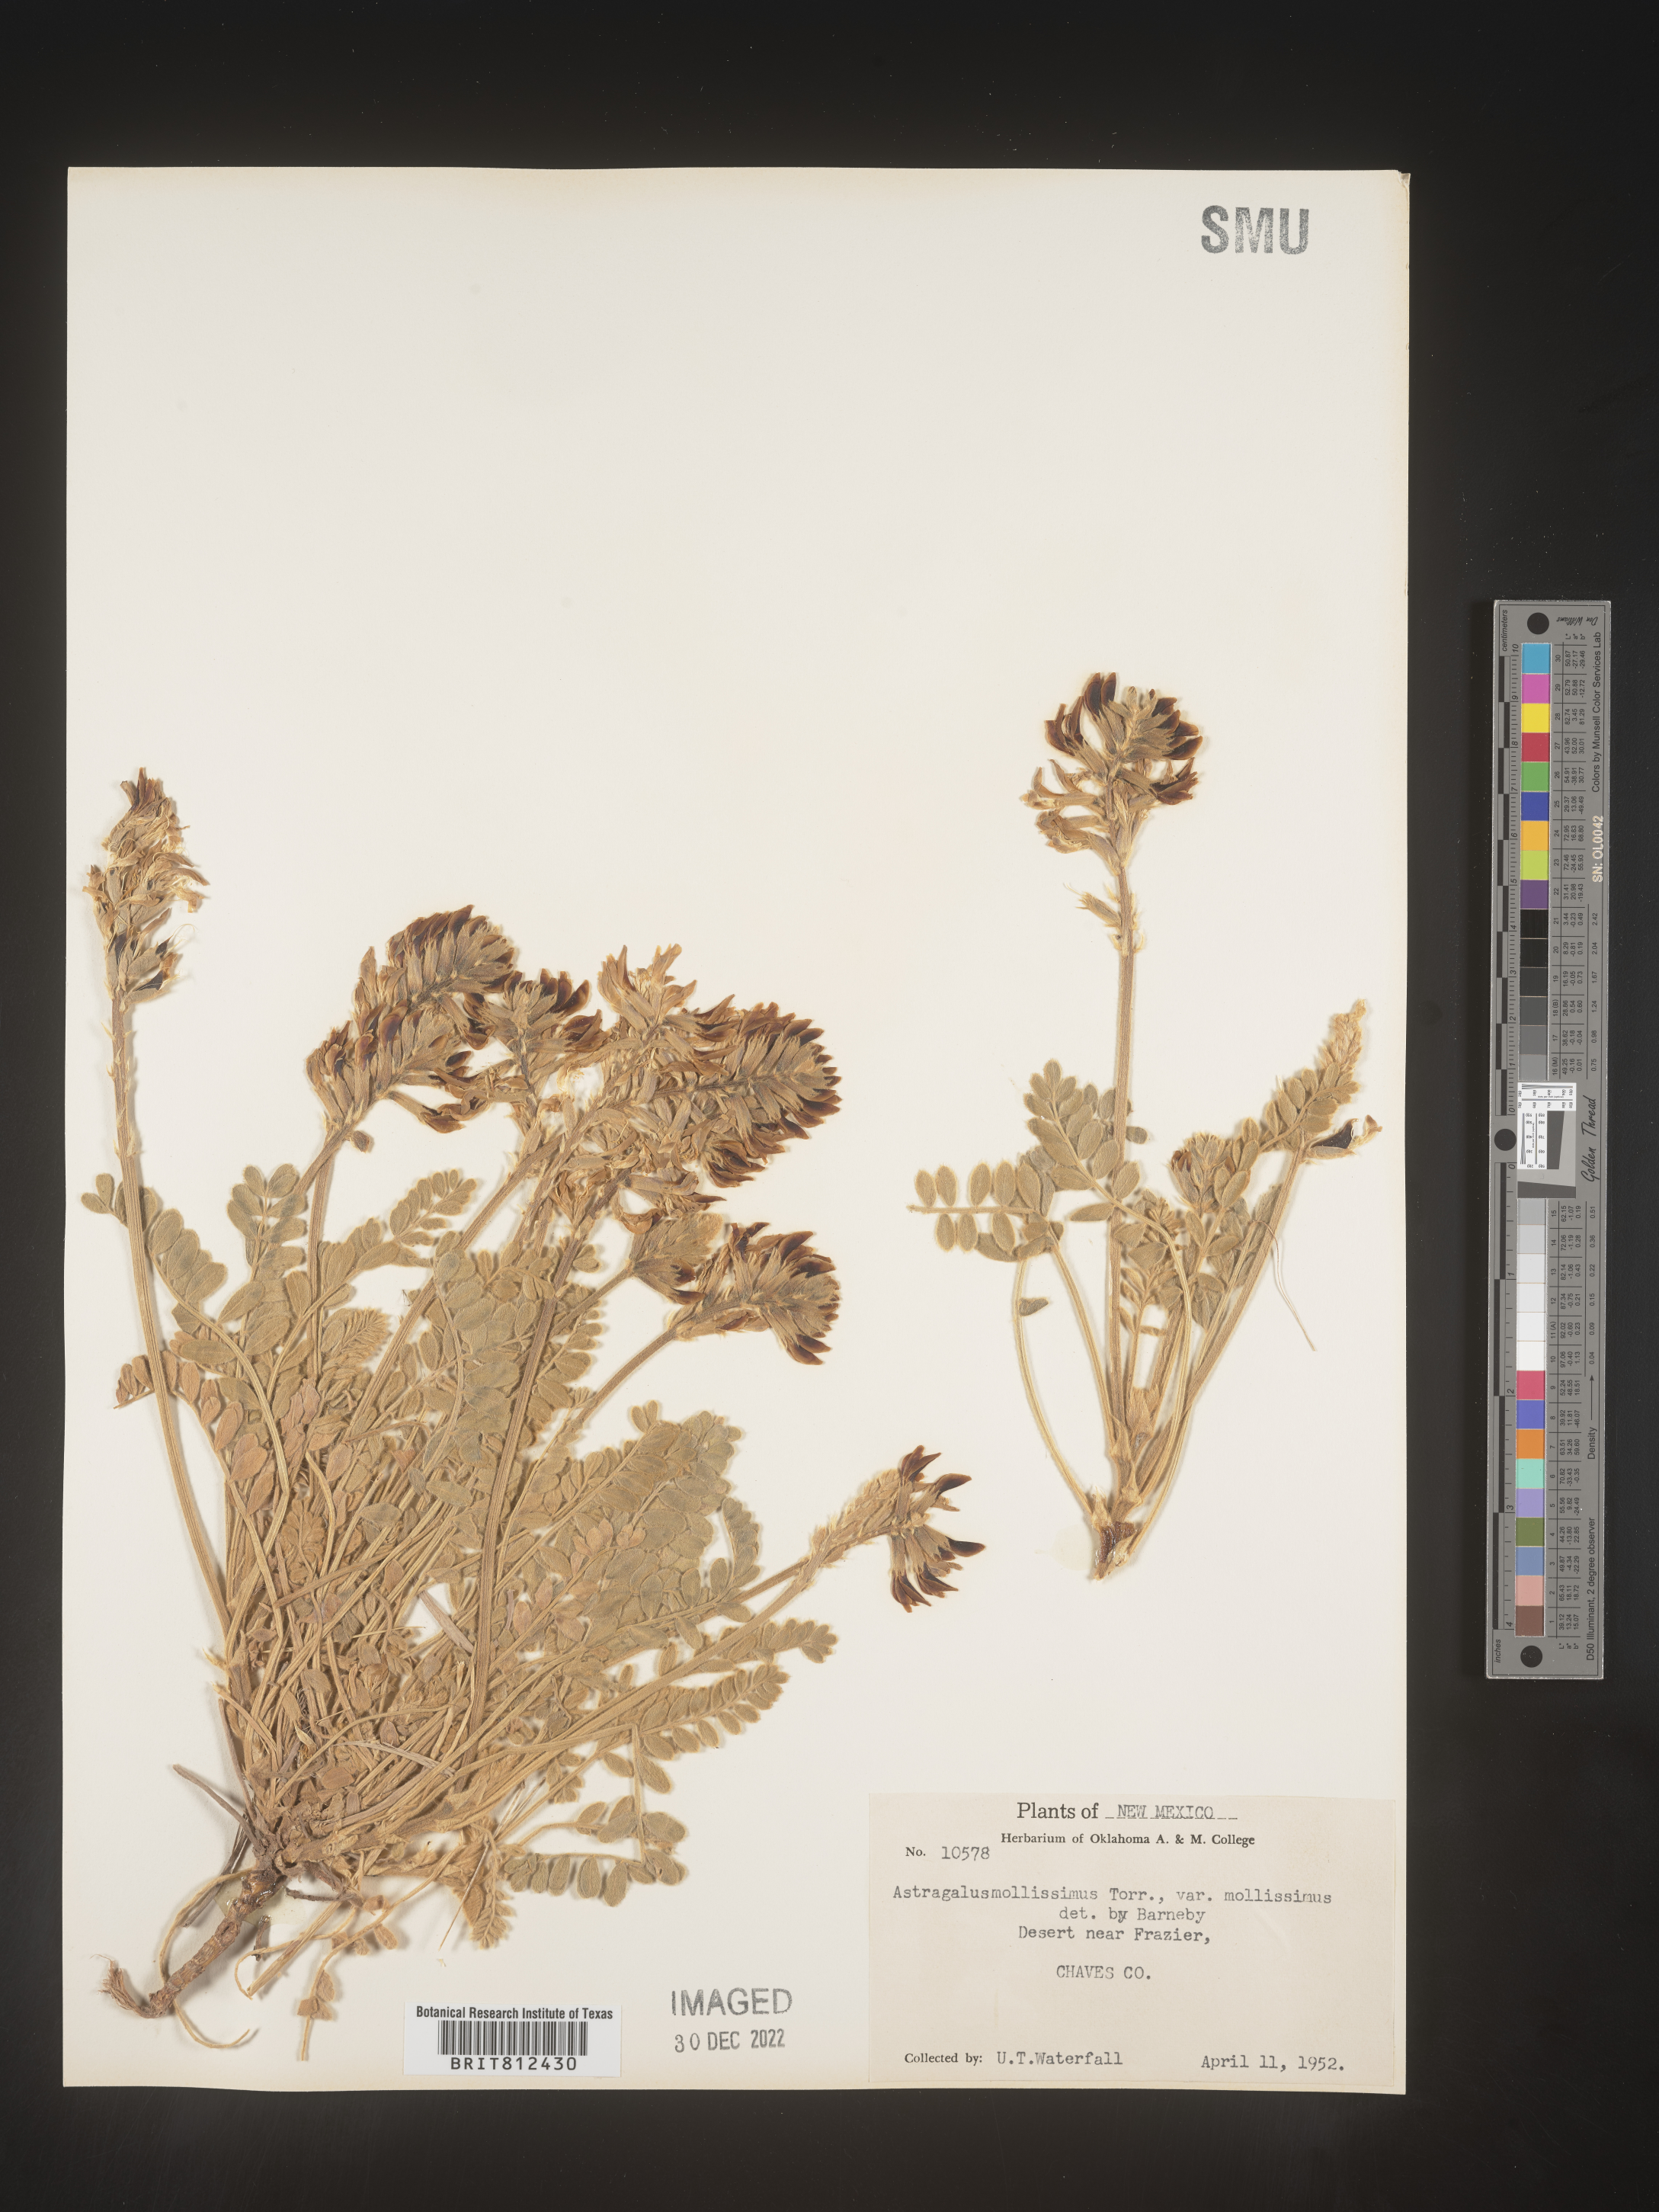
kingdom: Plantae
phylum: Tracheophyta
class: Magnoliopsida
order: Fabales
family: Fabaceae
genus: Astragalus
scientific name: Astragalus
